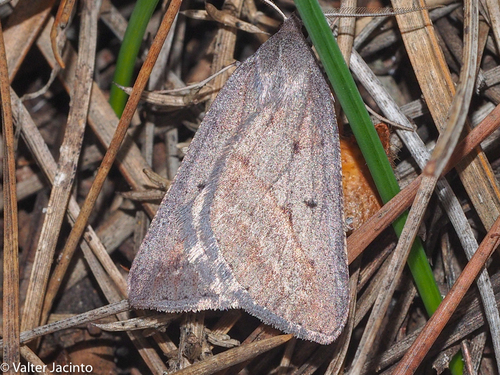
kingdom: Animalia
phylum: Arthropoda
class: Insecta
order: Lepidoptera
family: Geometridae
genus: Chemerina
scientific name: Chemerina caliginearia
